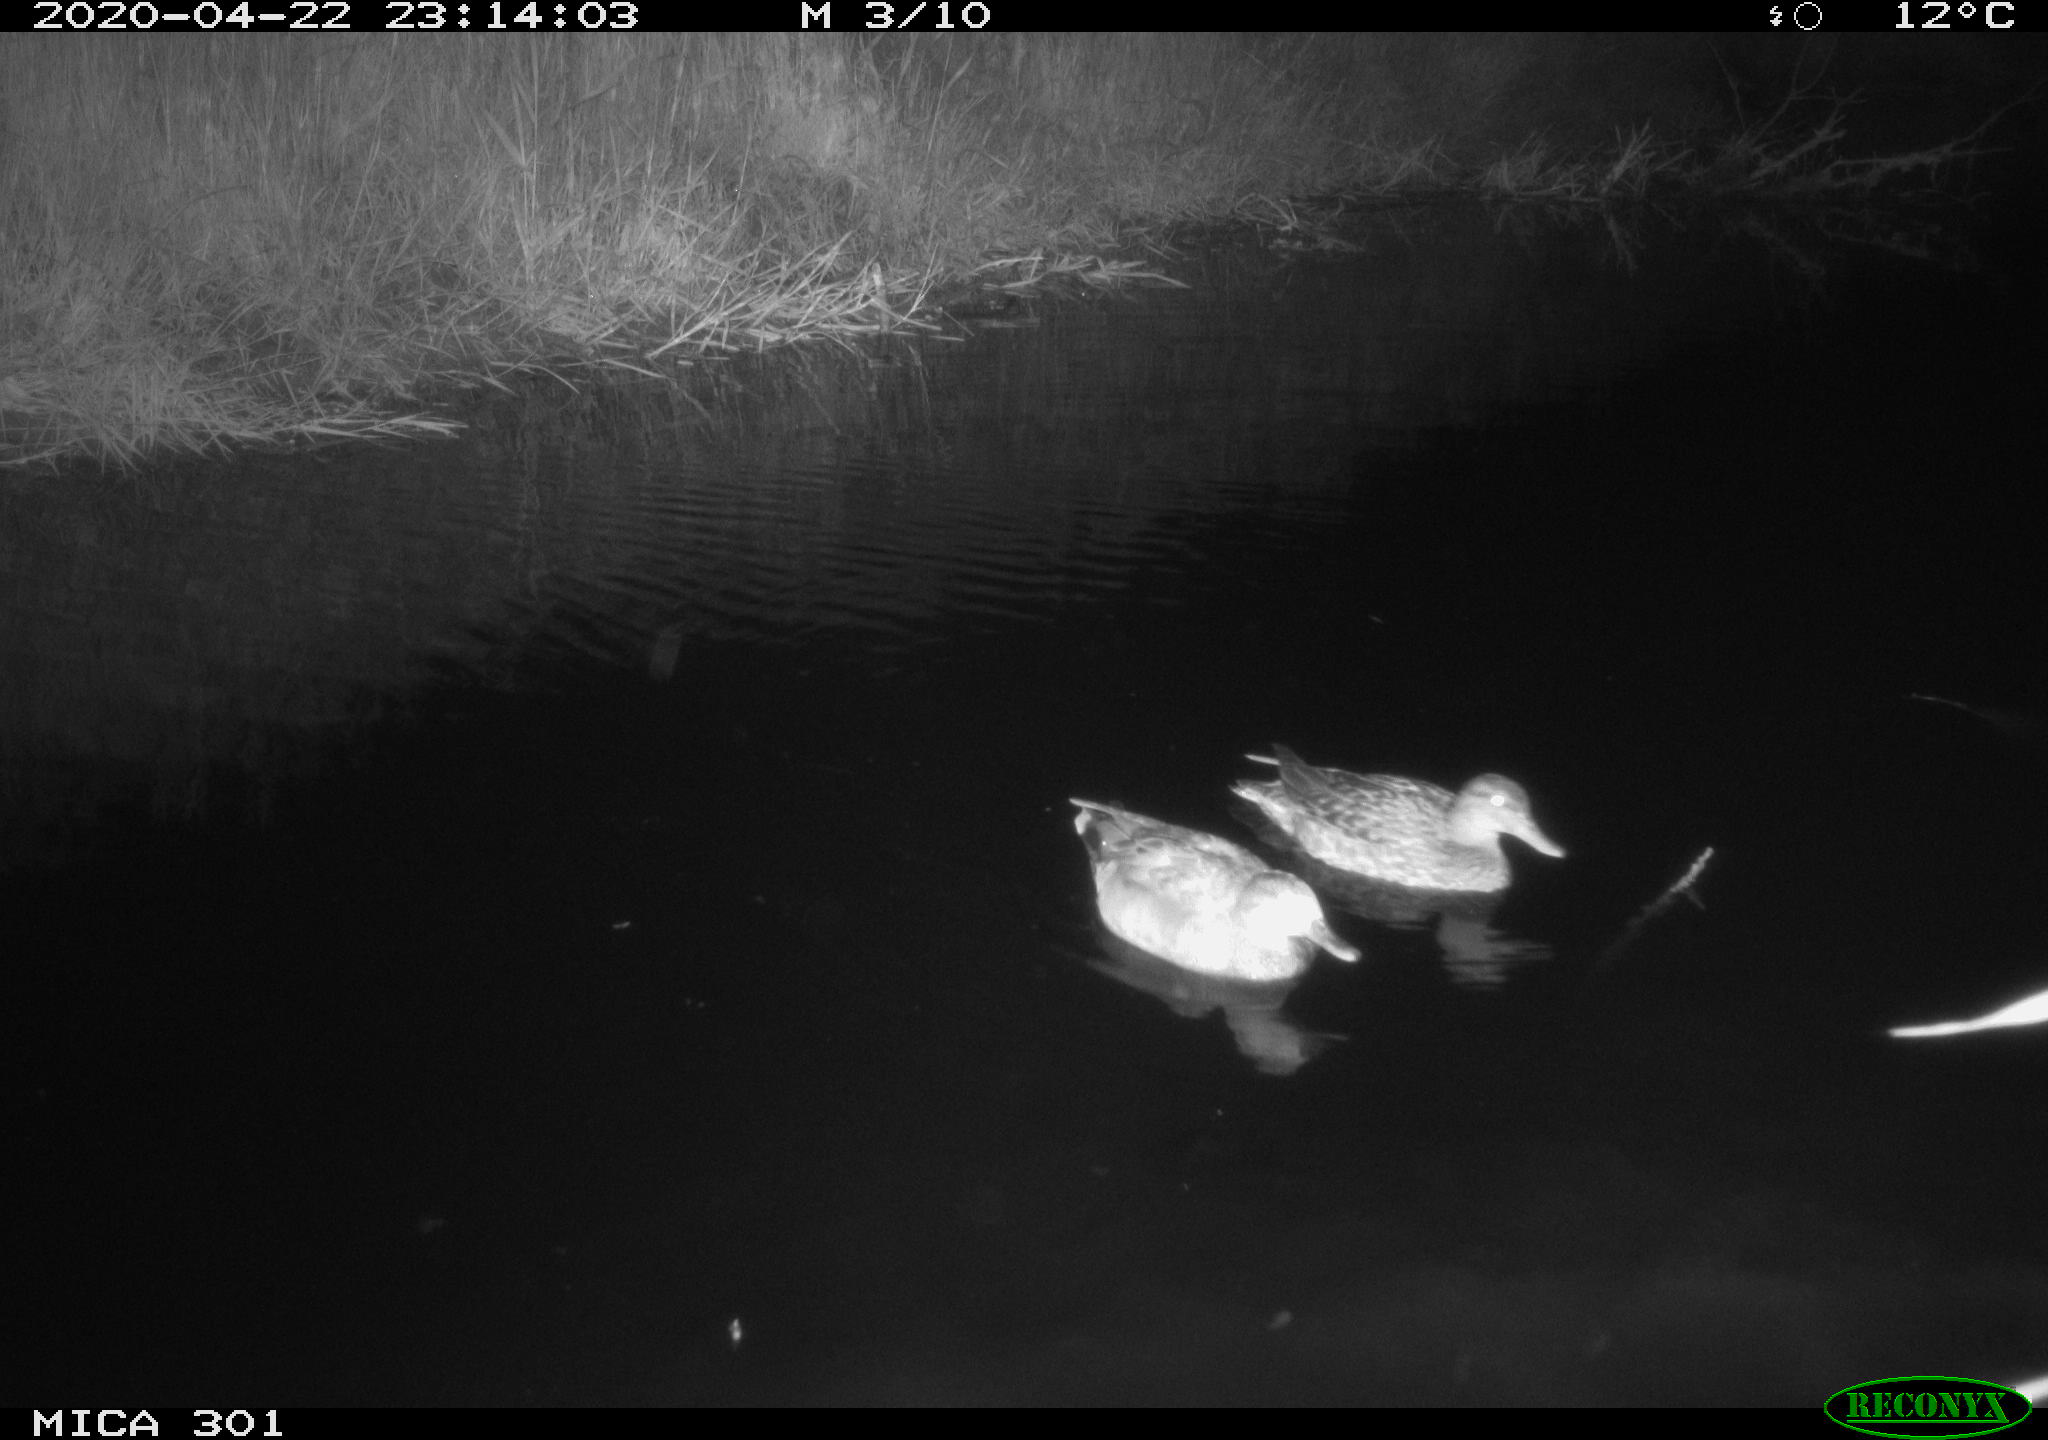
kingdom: Animalia
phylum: Chordata
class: Aves
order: Anseriformes
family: Anatidae
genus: Mareca
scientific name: Mareca strepera
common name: Gadwall
